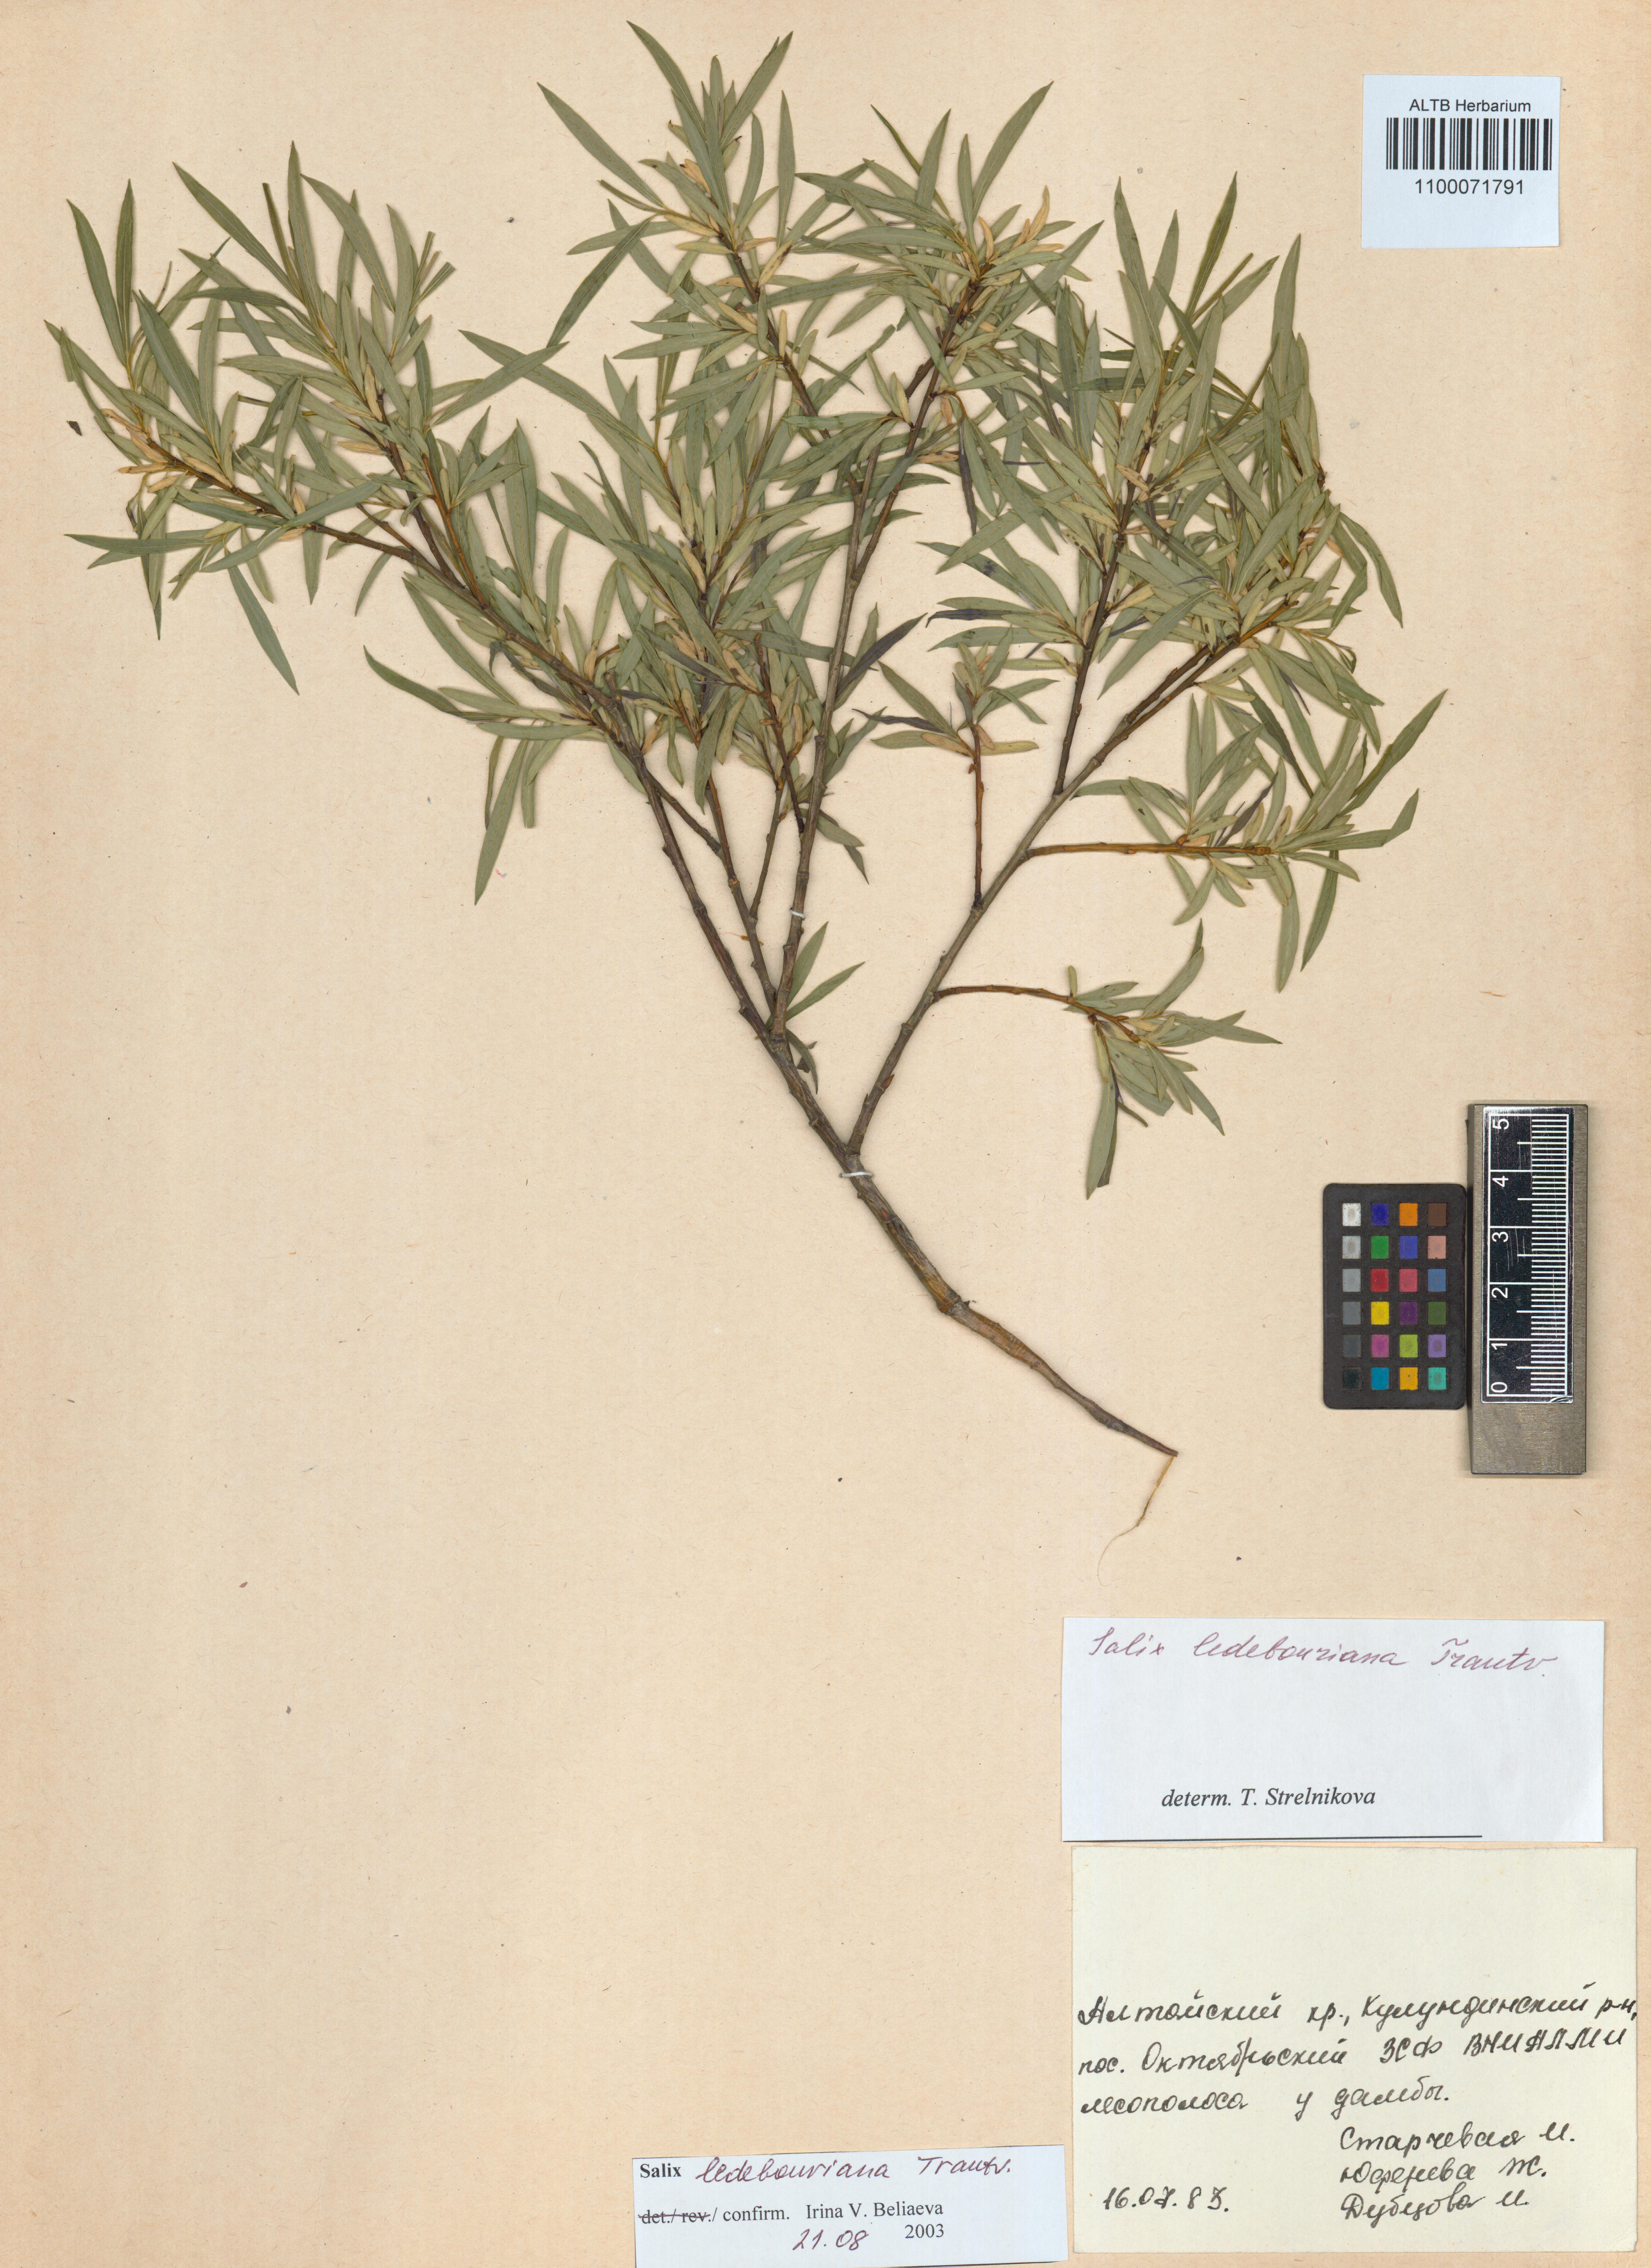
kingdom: Plantae
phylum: Tracheophyta
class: Magnoliopsida
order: Malpighiales
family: Salicaceae
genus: Salix
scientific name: Salix ledebouriana
